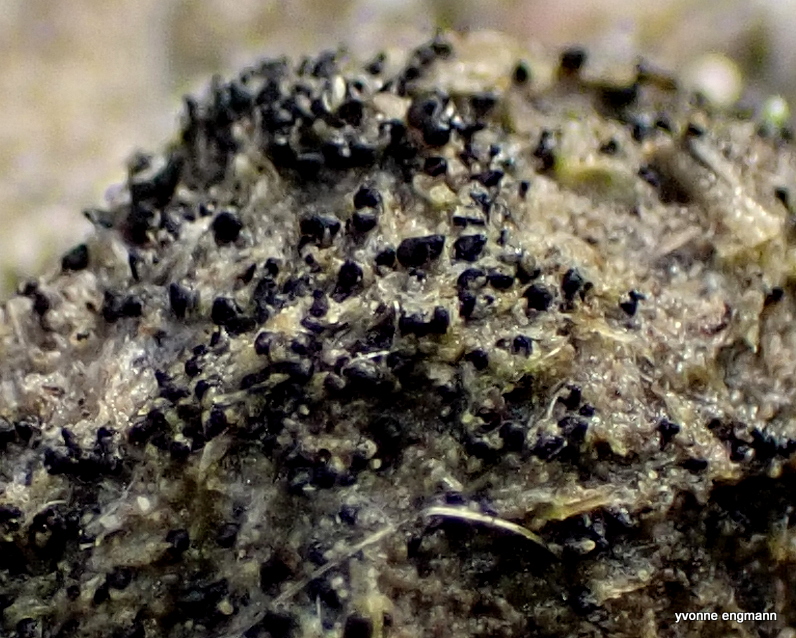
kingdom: Fungi
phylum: Ascomycota
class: Sordariomycetes
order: Sordariales
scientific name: Sordariales
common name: kernesvampordenen
